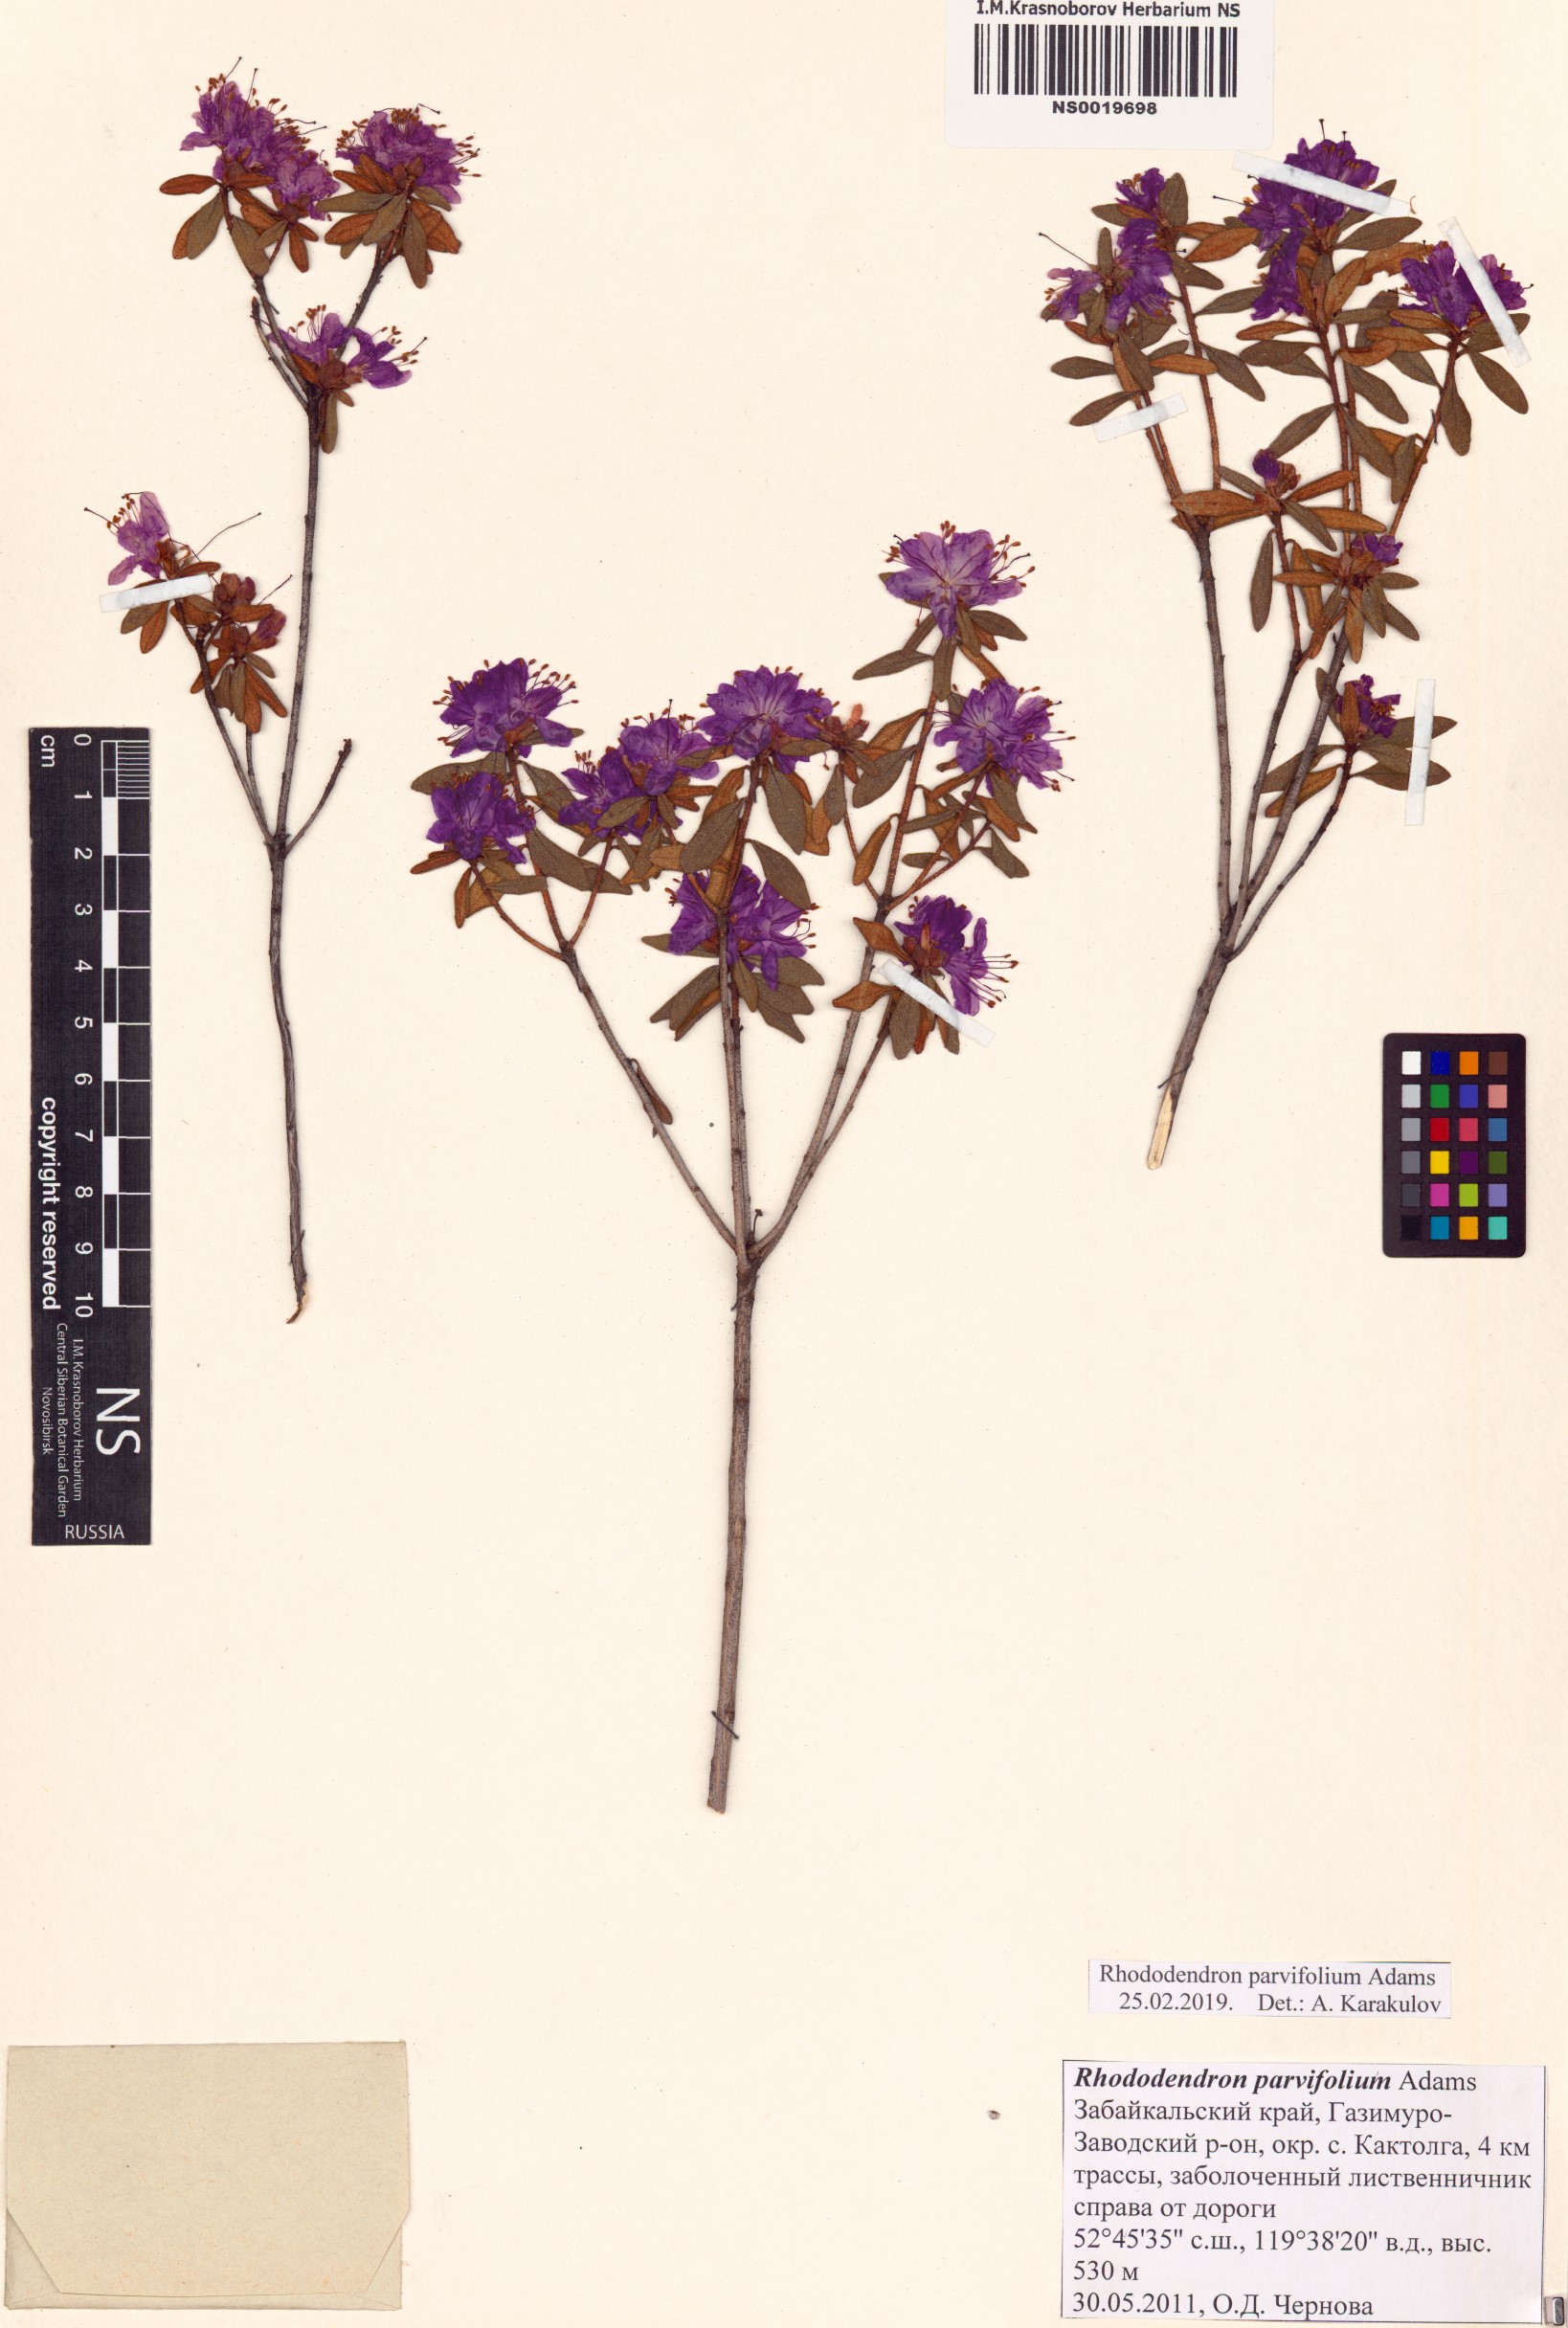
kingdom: Plantae
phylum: Tracheophyta
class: Magnoliopsida
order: Ericales
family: Ericaceae
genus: Rhododendron
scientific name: Rhododendron parvifolium
